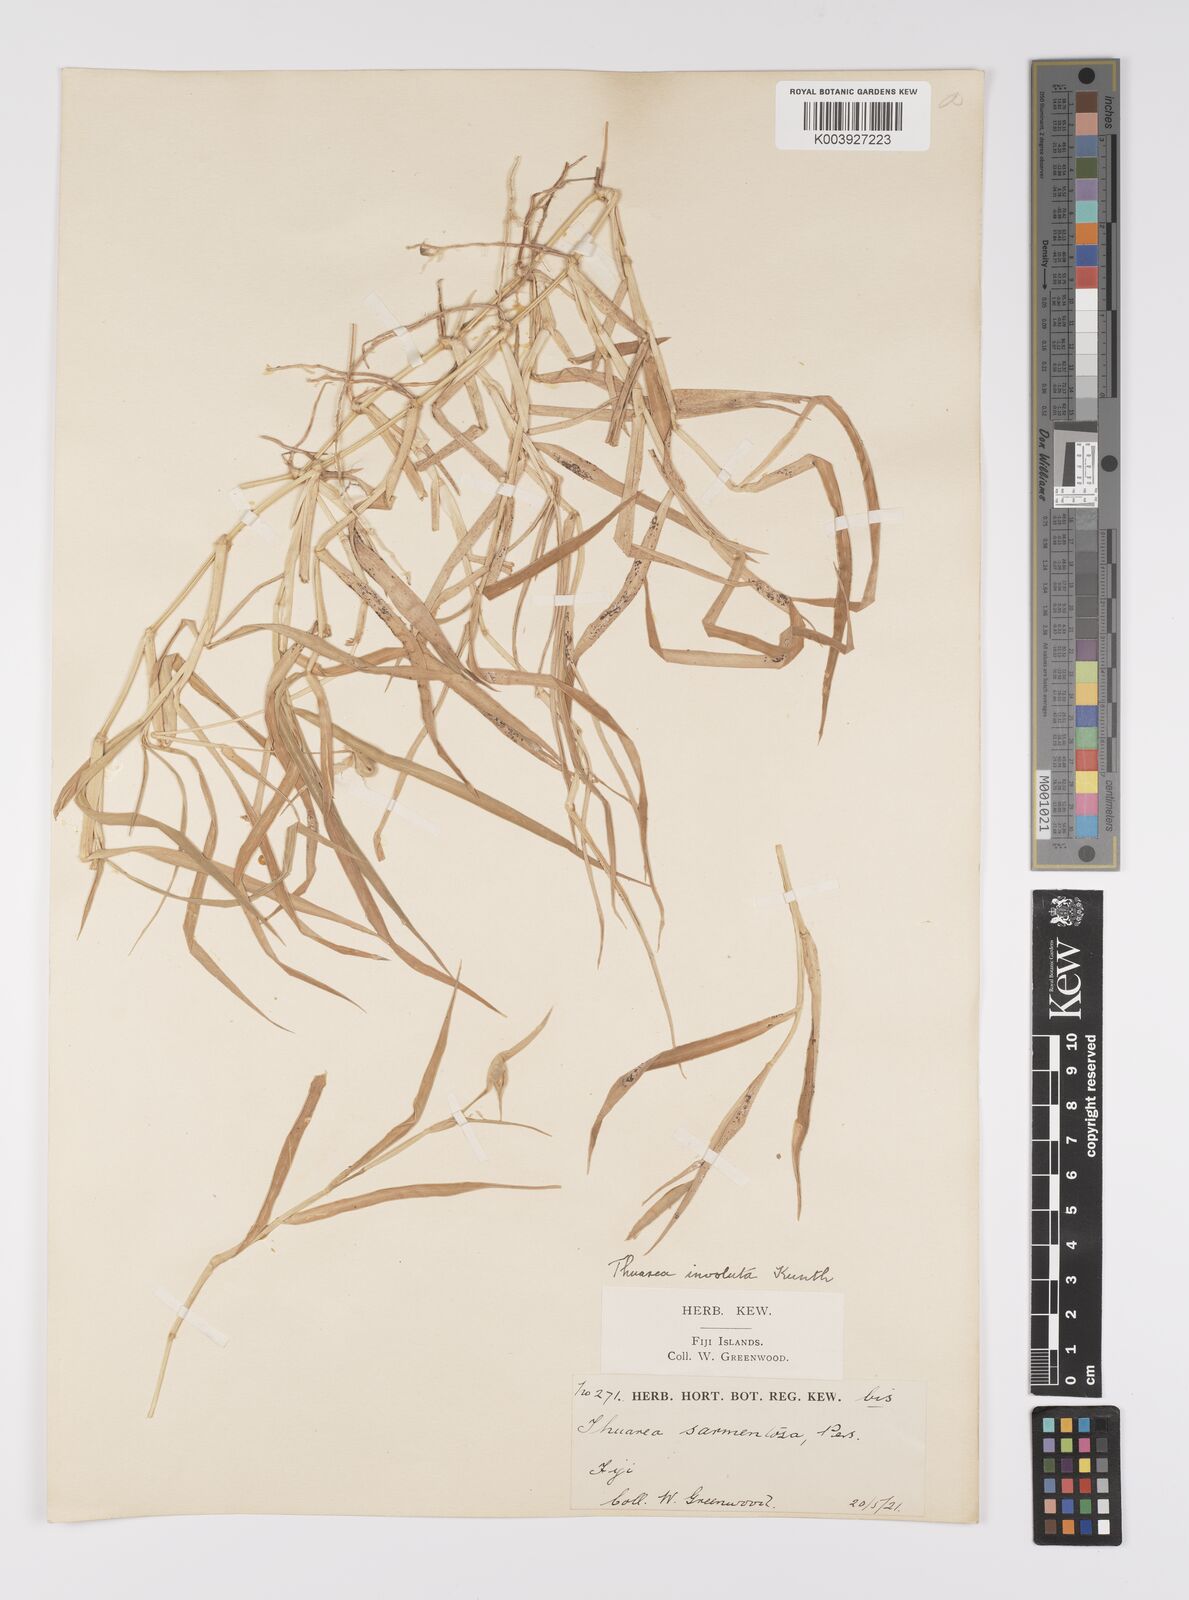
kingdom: Plantae
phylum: Tracheophyta
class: Liliopsida
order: Poales
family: Poaceae
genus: Thuarea
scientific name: Thuarea involuta
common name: Tropical beach grass
